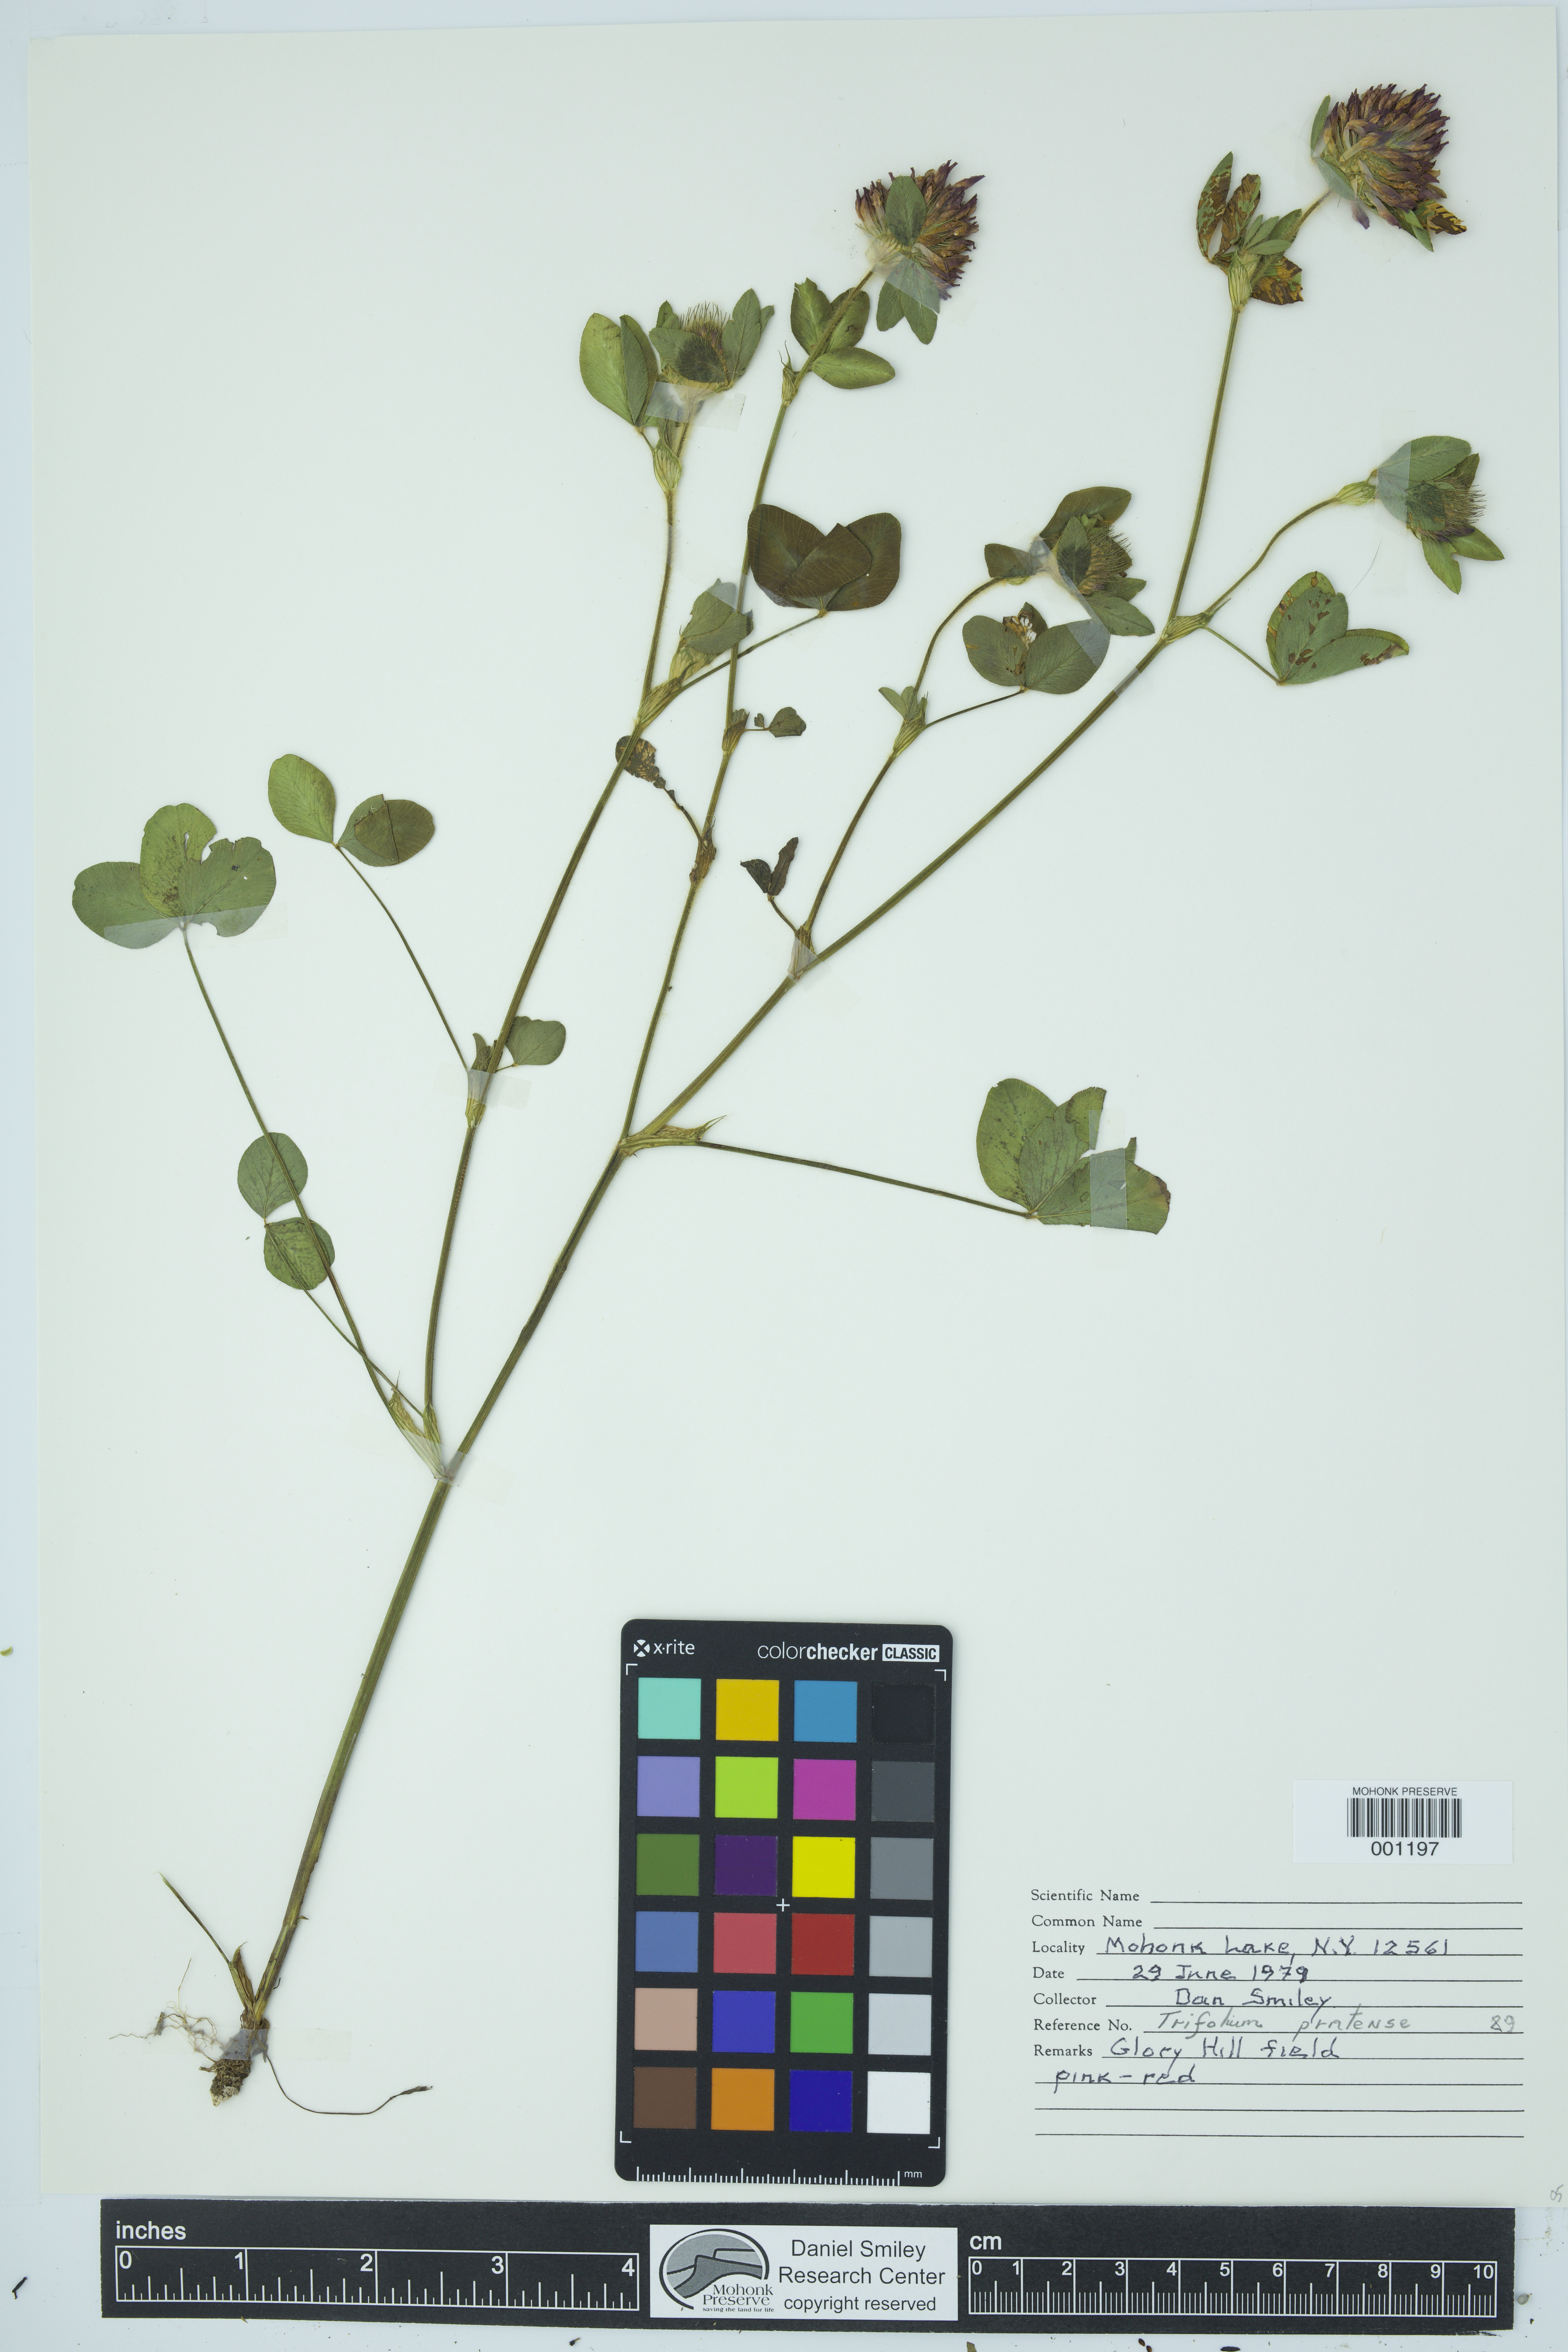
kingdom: Plantae
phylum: Tracheophyta
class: Magnoliopsida
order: Fabales
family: Fabaceae
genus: Trifolium
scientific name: Trifolium pratense
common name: Red clover
